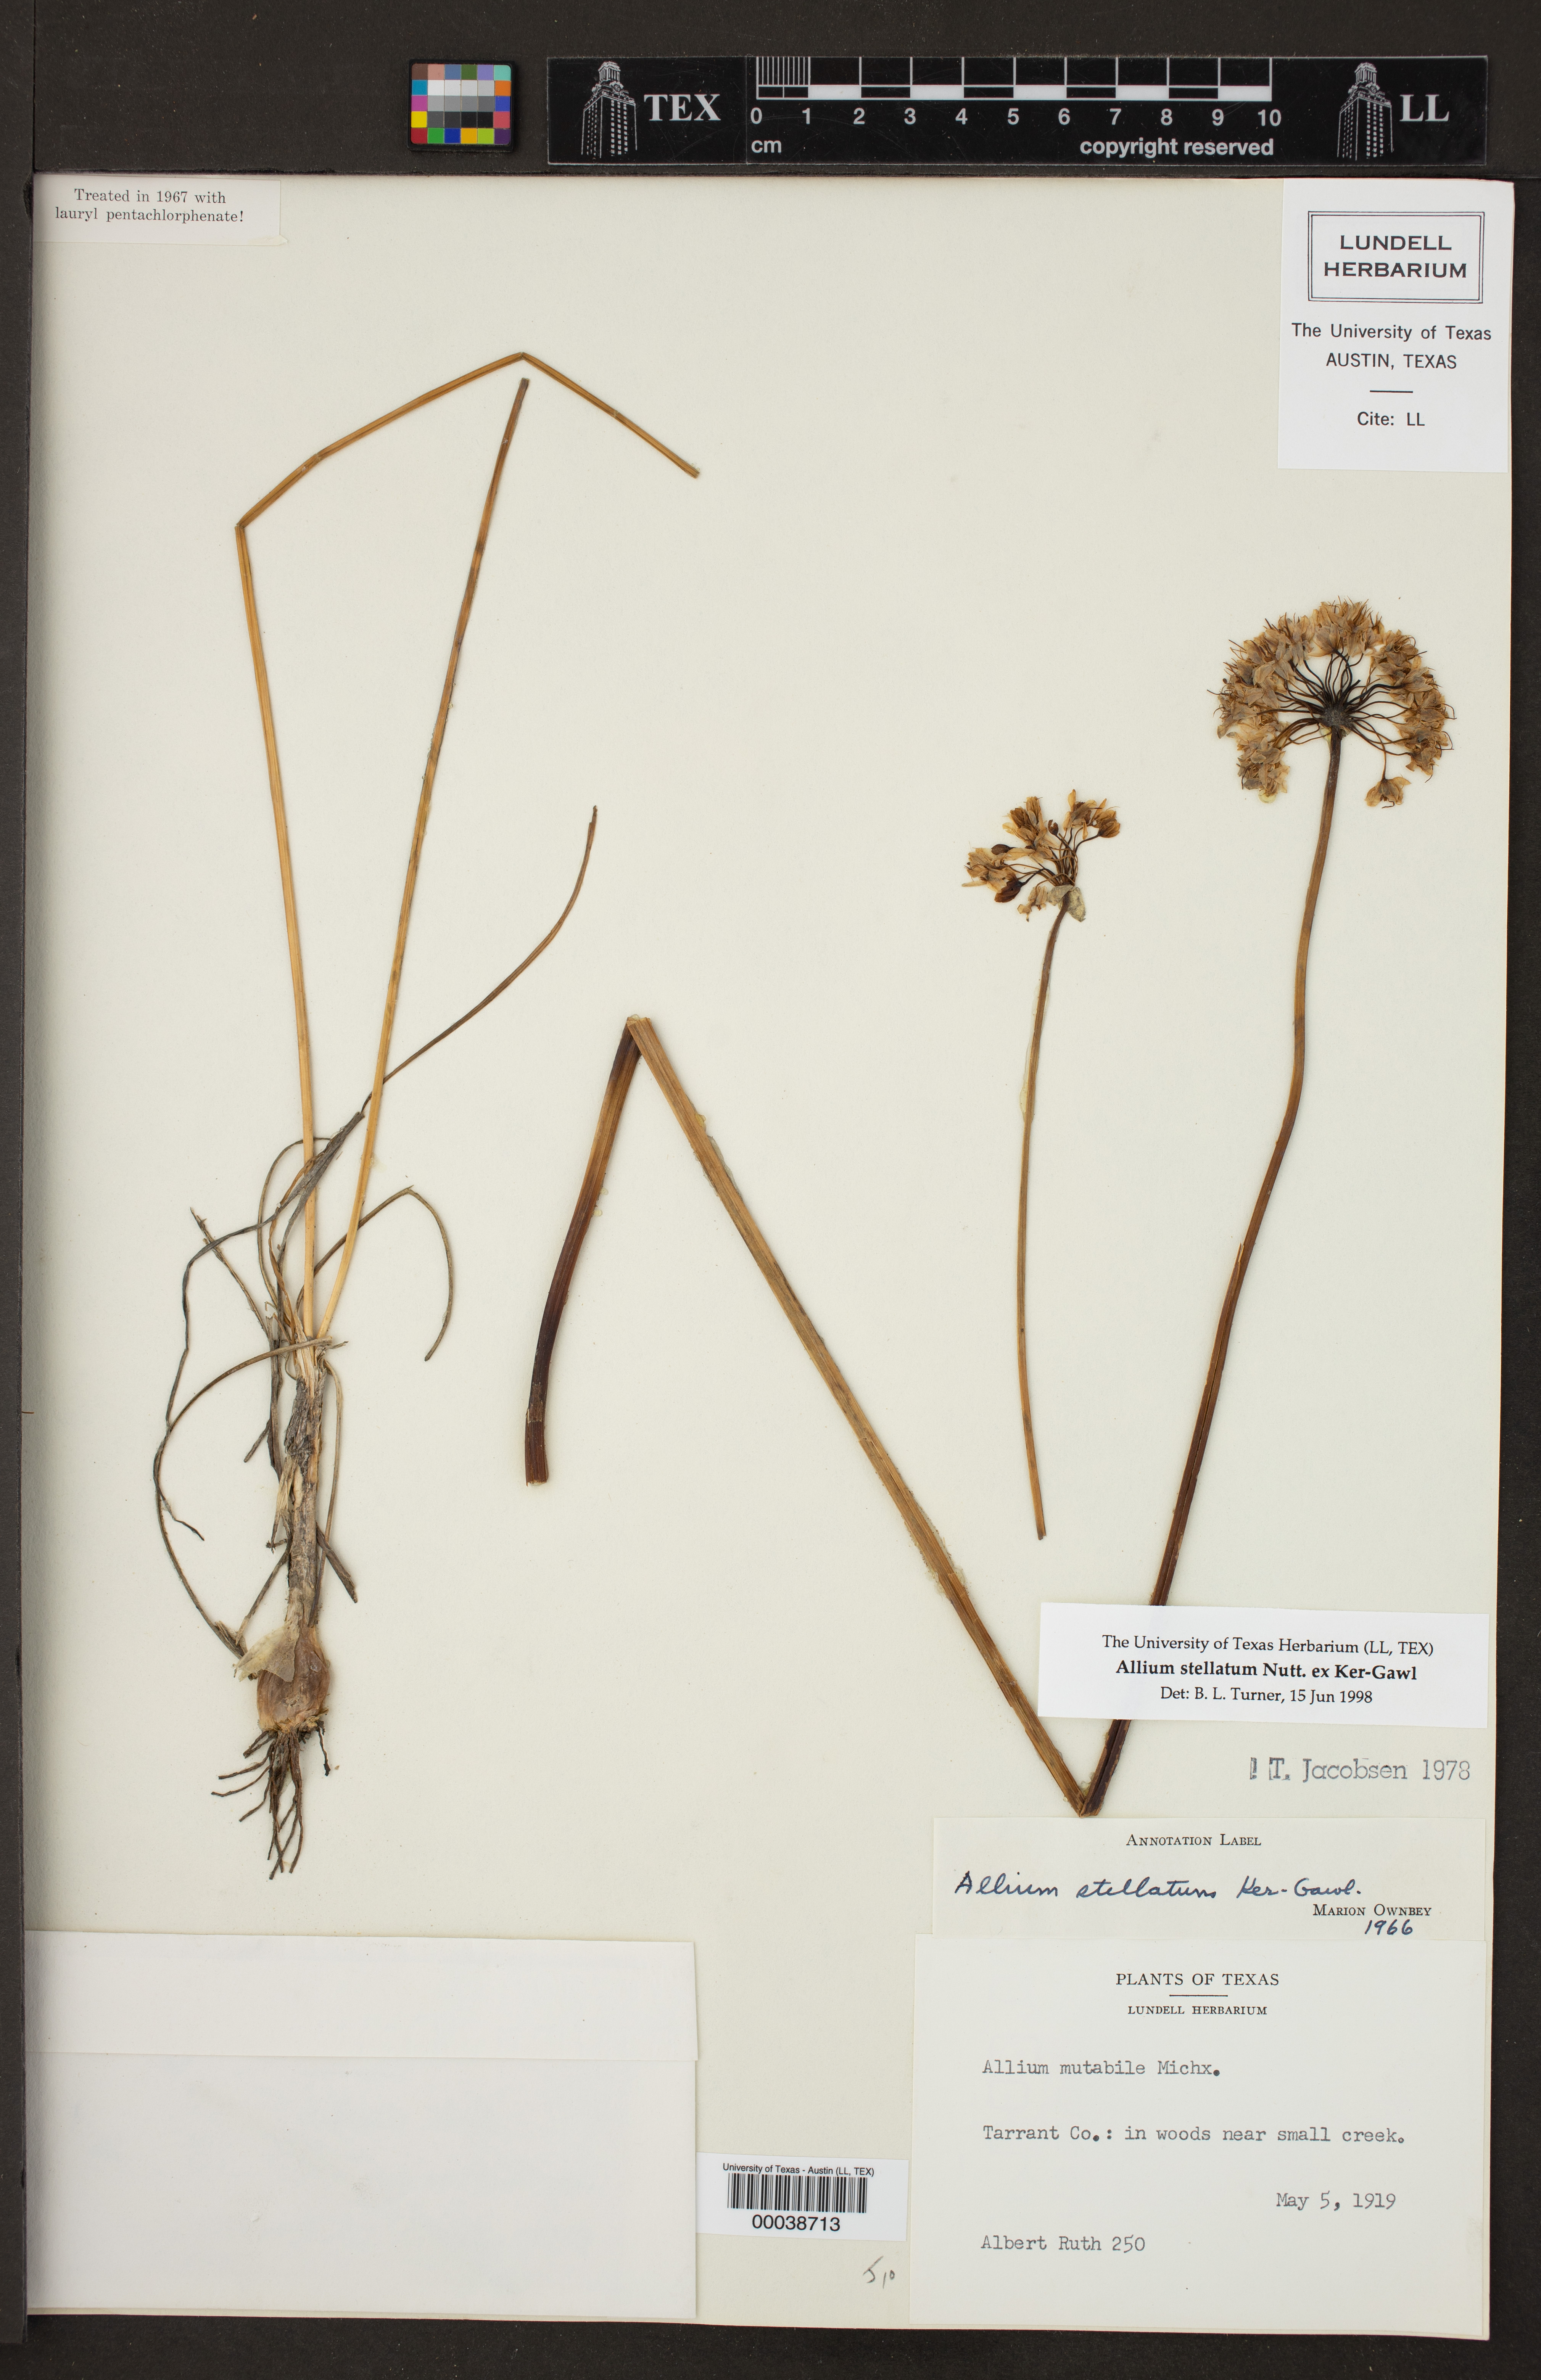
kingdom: Plantae
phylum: Tracheophyta
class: Liliopsida
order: Asparagales
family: Amaryllidaceae
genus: Allium
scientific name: Allium stellatum
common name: Autumn onion
